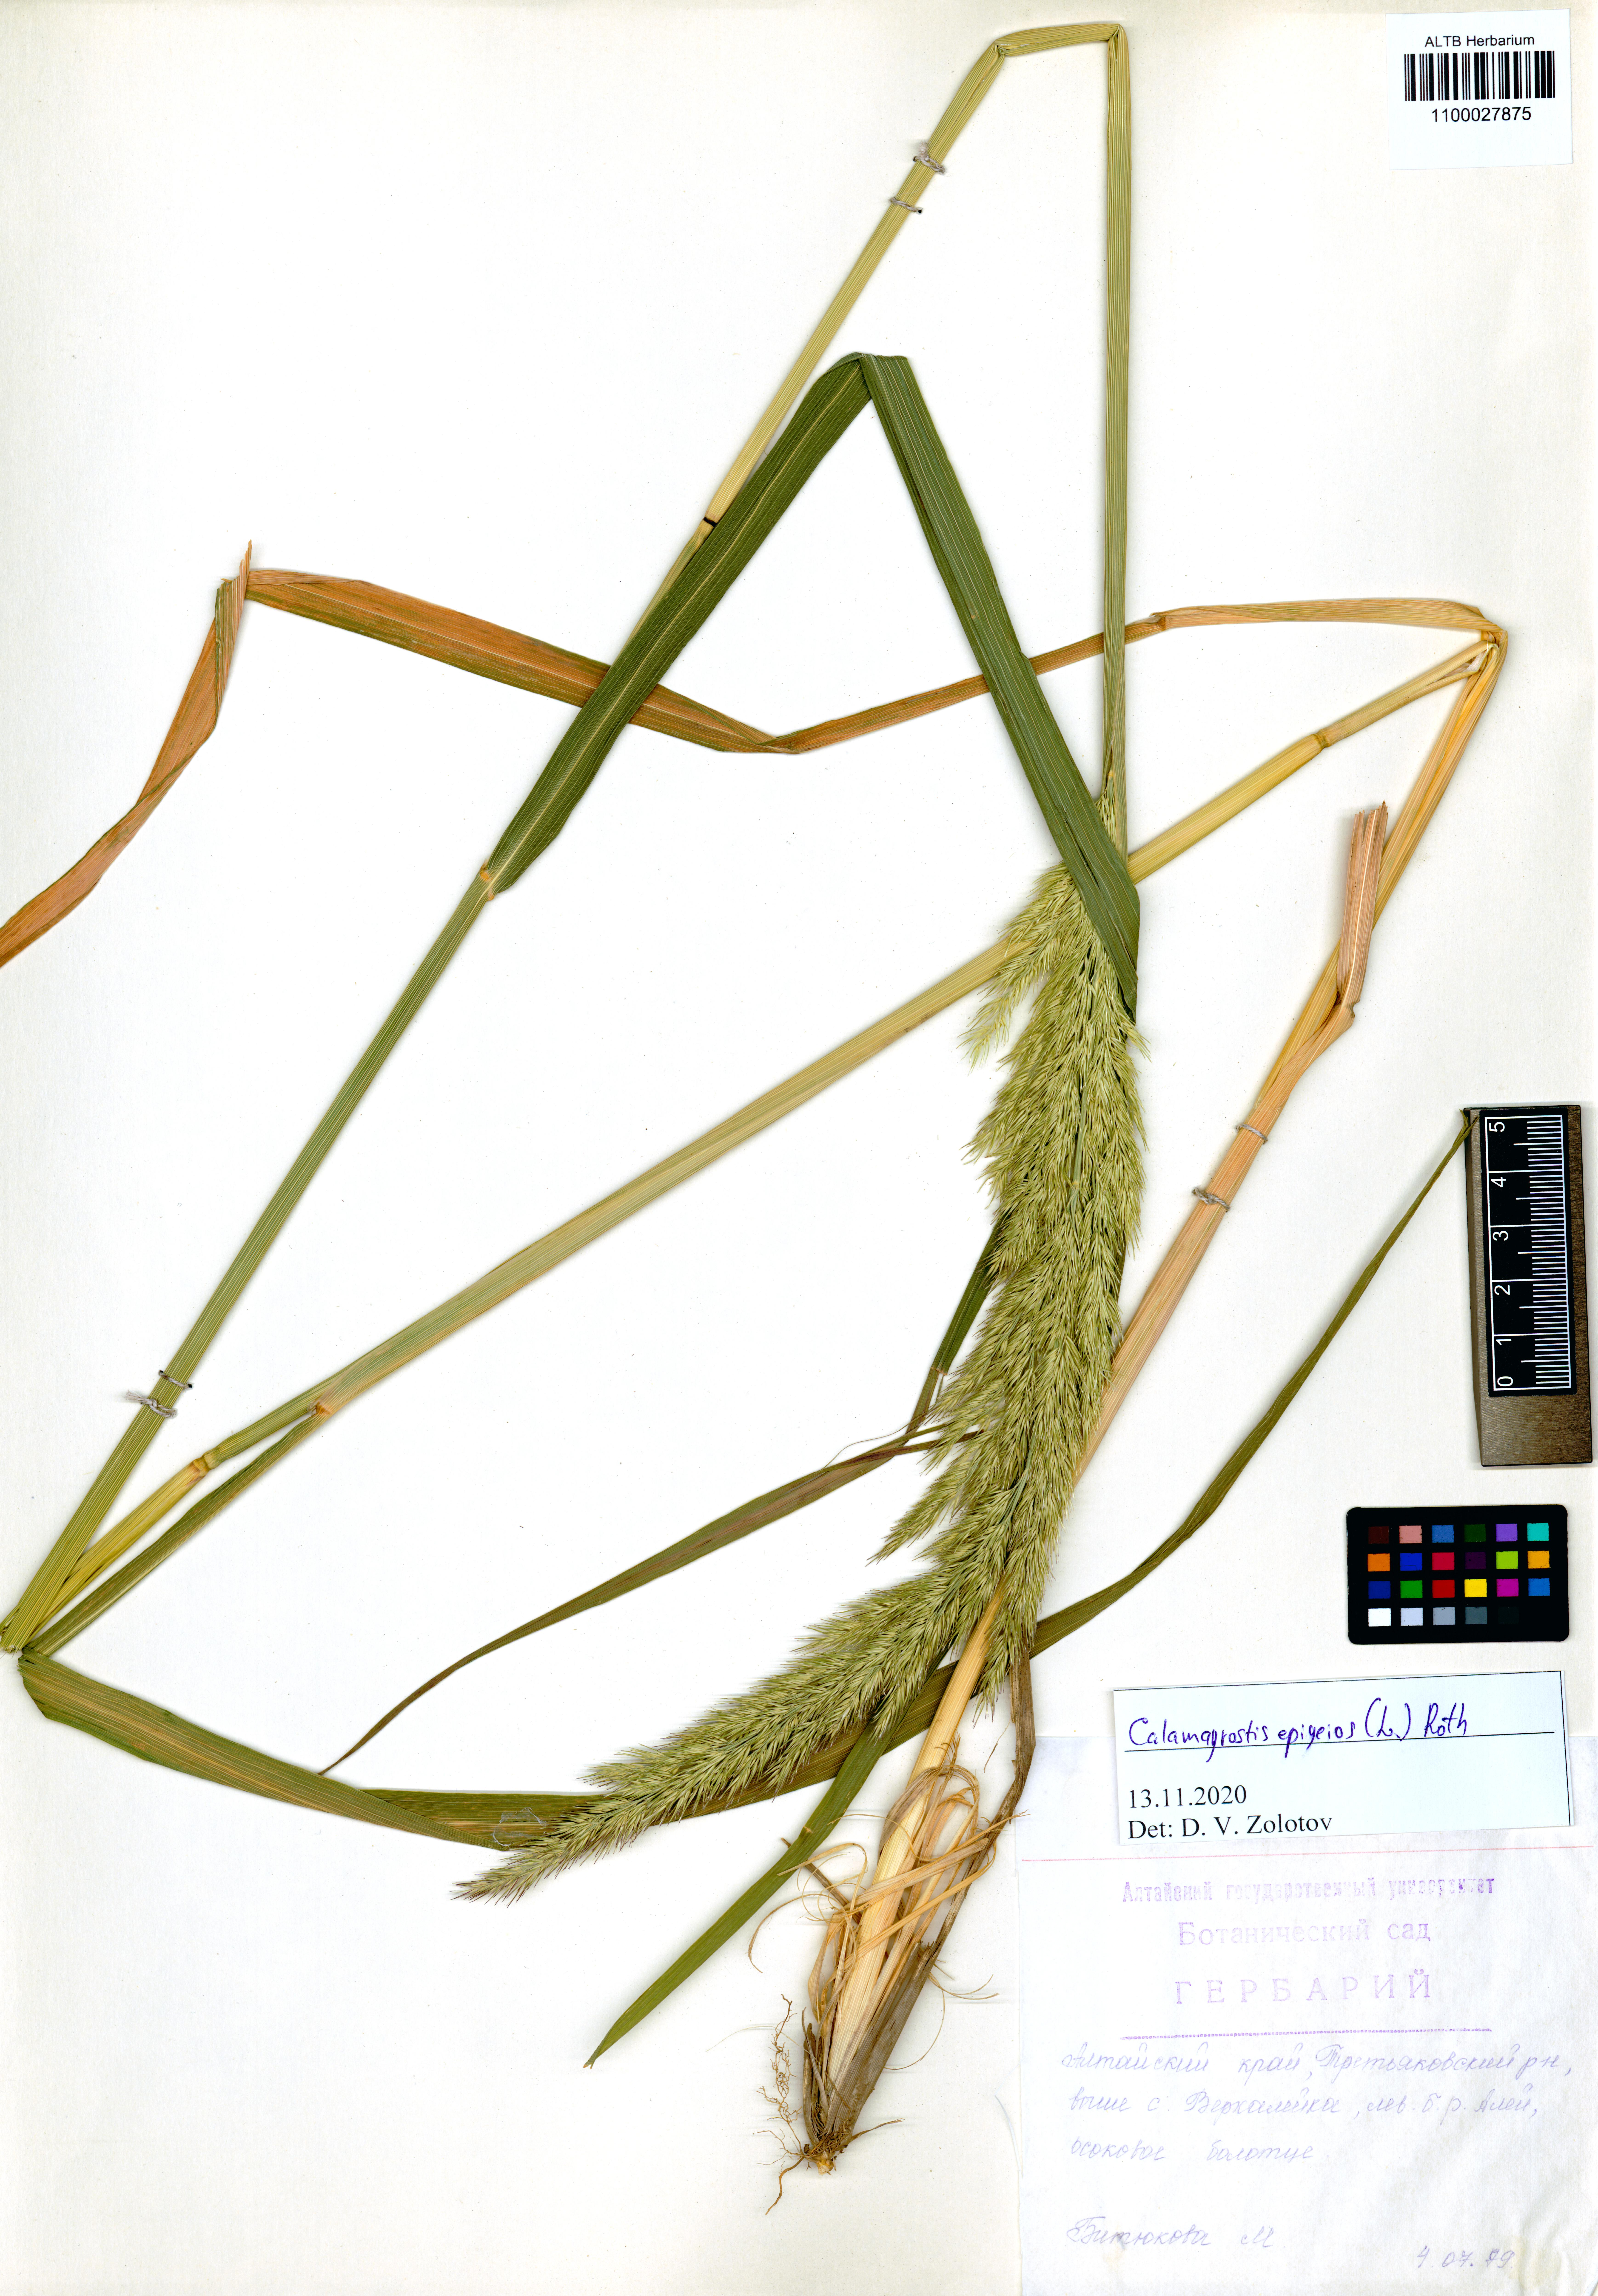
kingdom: Plantae
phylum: Tracheophyta
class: Liliopsida
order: Poales
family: Poaceae
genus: Calamagrostis
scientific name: Calamagrostis epigejos
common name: Wood small-reed
